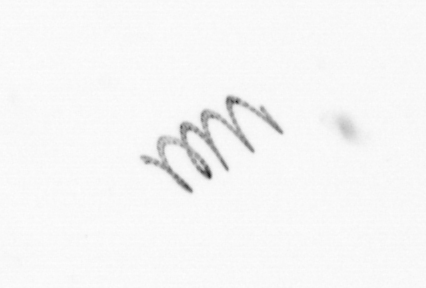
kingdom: Chromista
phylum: Ochrophyta
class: Bacillariophyceae
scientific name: Bacillariophyceae
